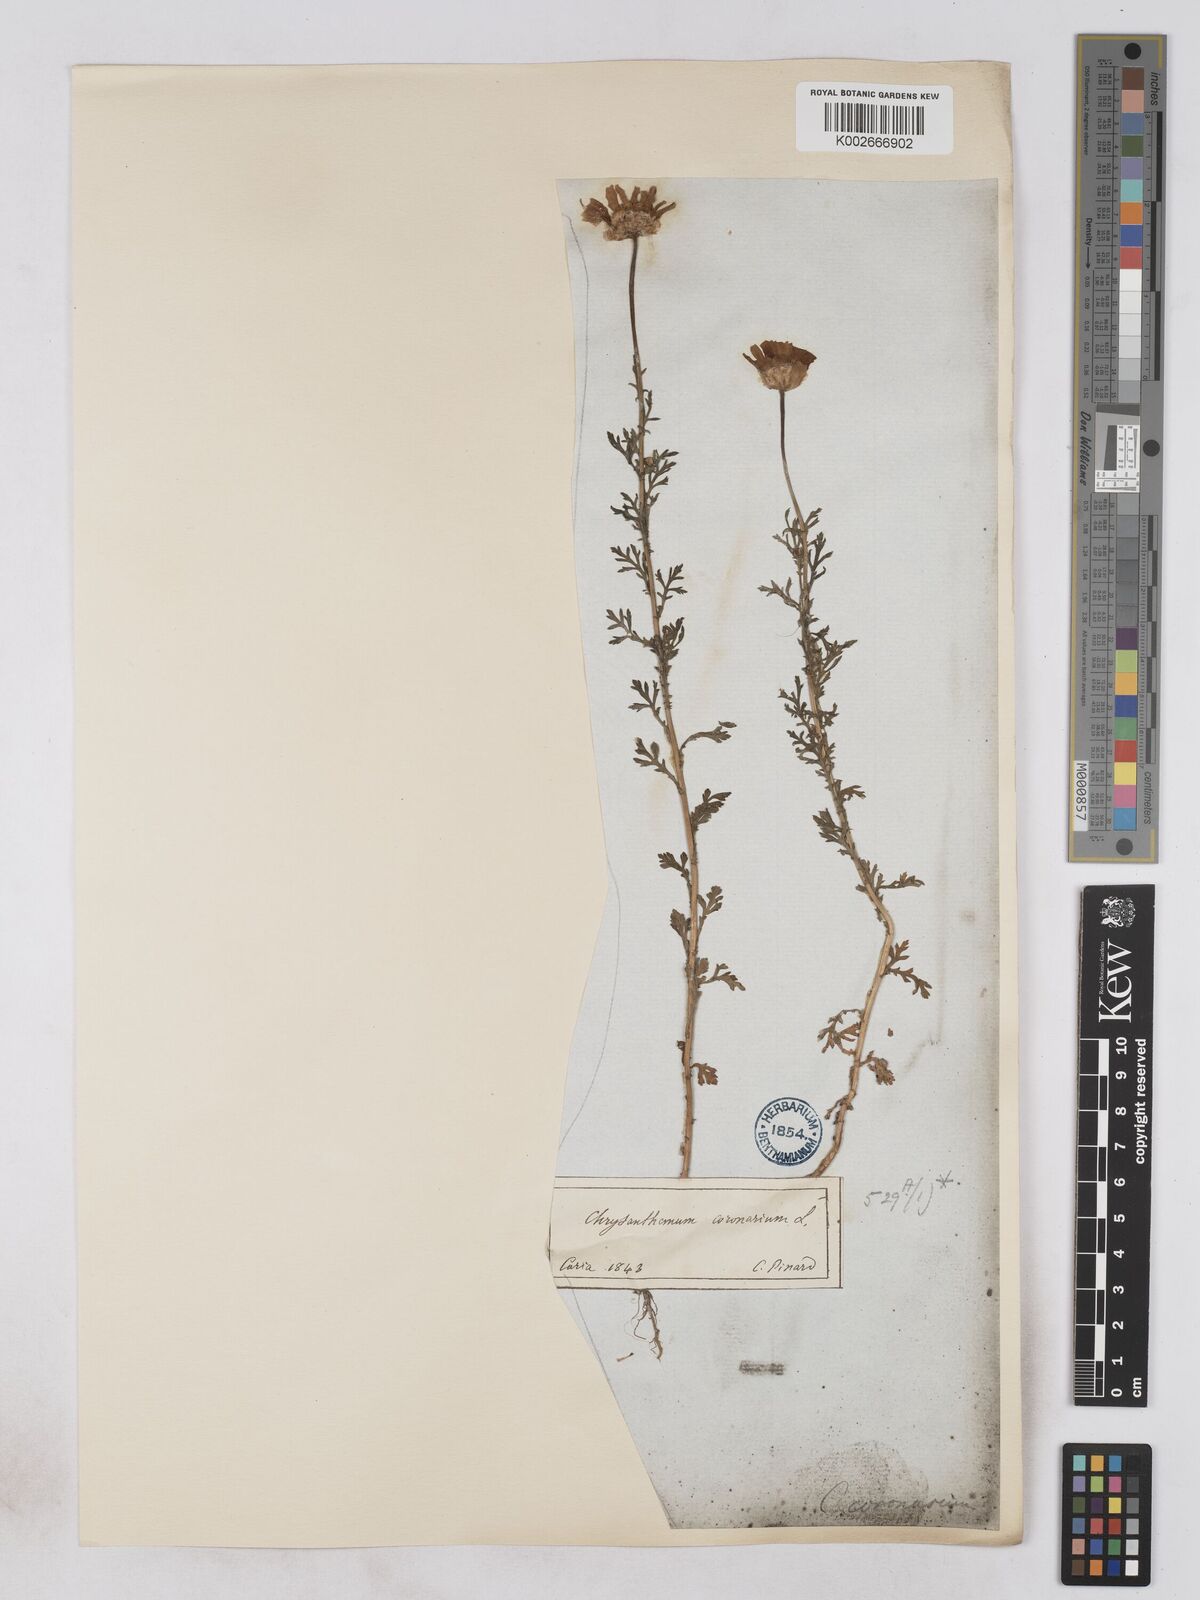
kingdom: Plantae
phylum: Tracheophyta
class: Magnoliopsida
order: Asterales
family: Asteraceae
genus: Glebionis
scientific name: Glebionis coronaria
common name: Crowndaisy
